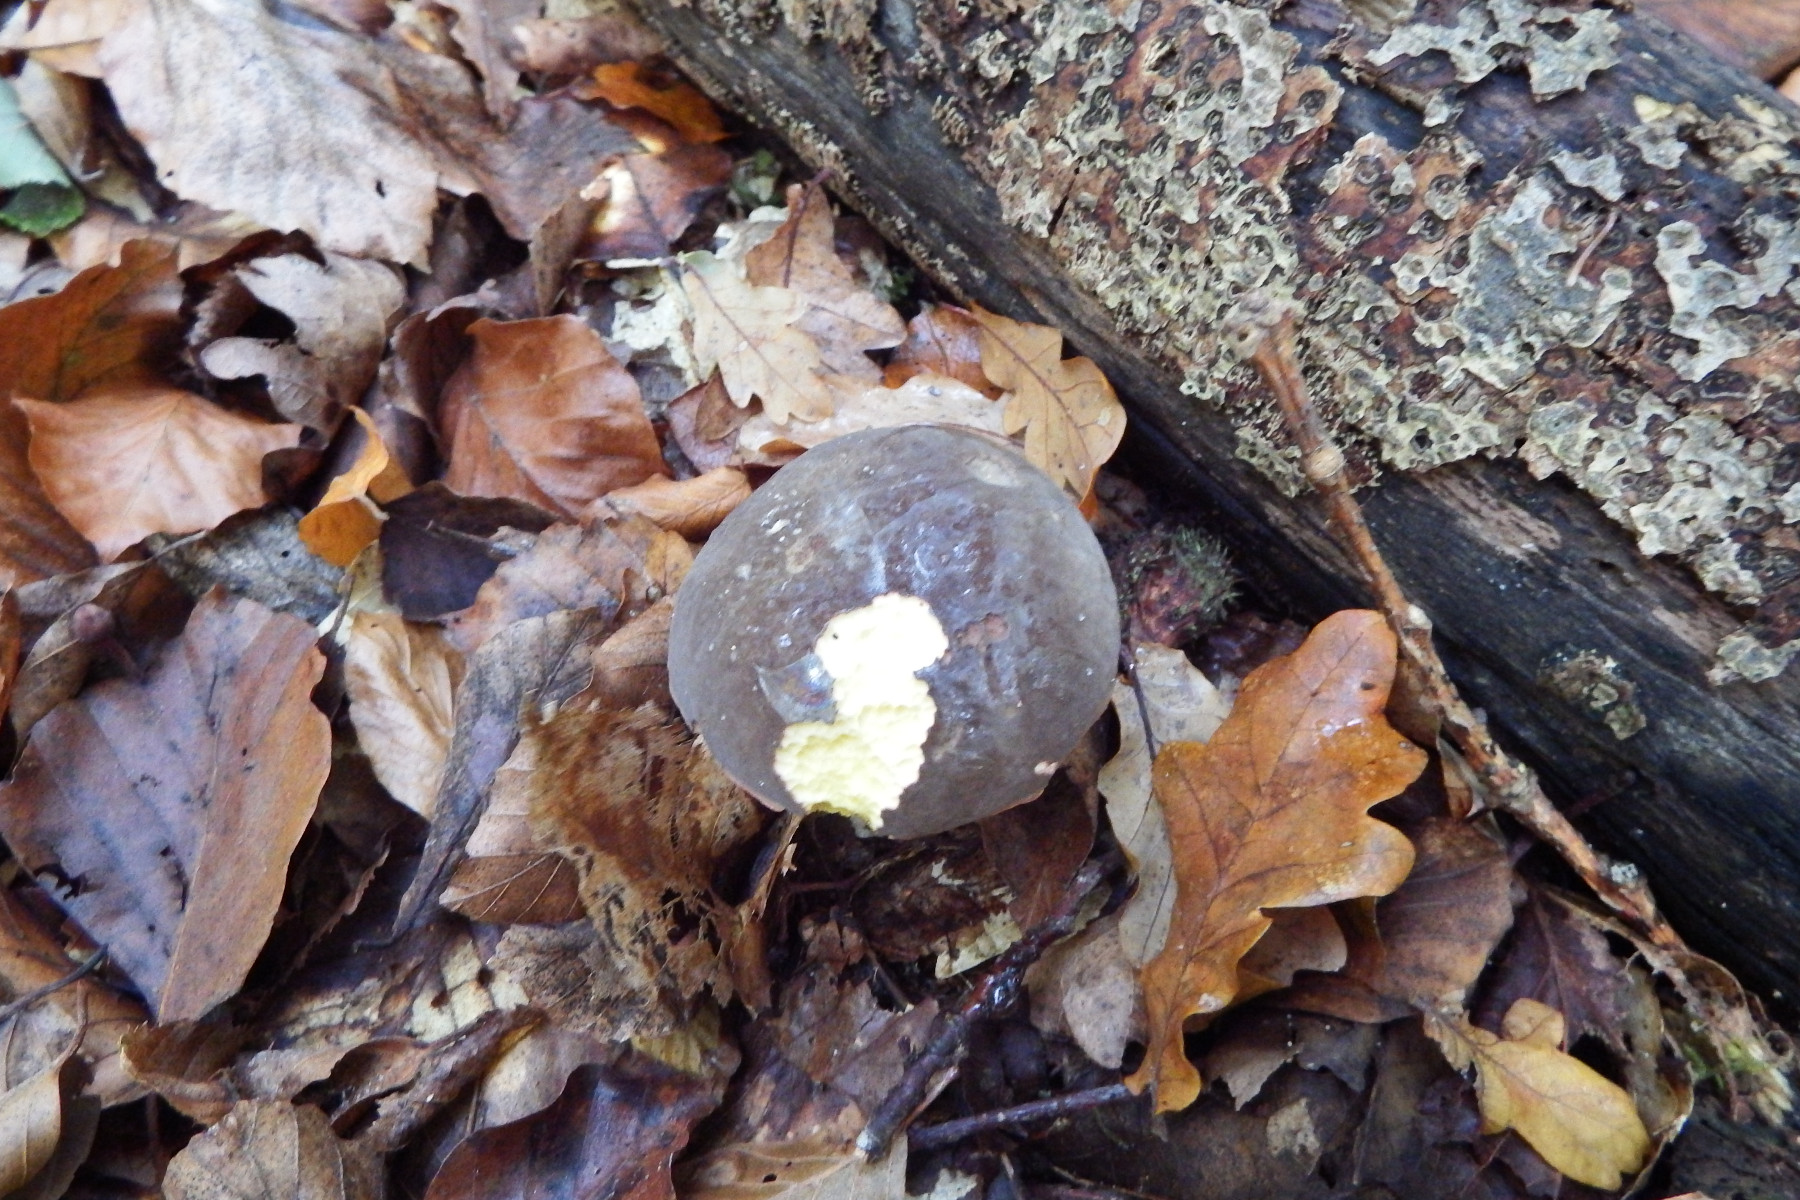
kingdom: Fungi
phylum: Basidiomycota
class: Agaricomycetes
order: Boletales
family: Boletaceae
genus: Xerocomellus
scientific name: Xerocomellus pruinatus
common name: dugget rørhat
